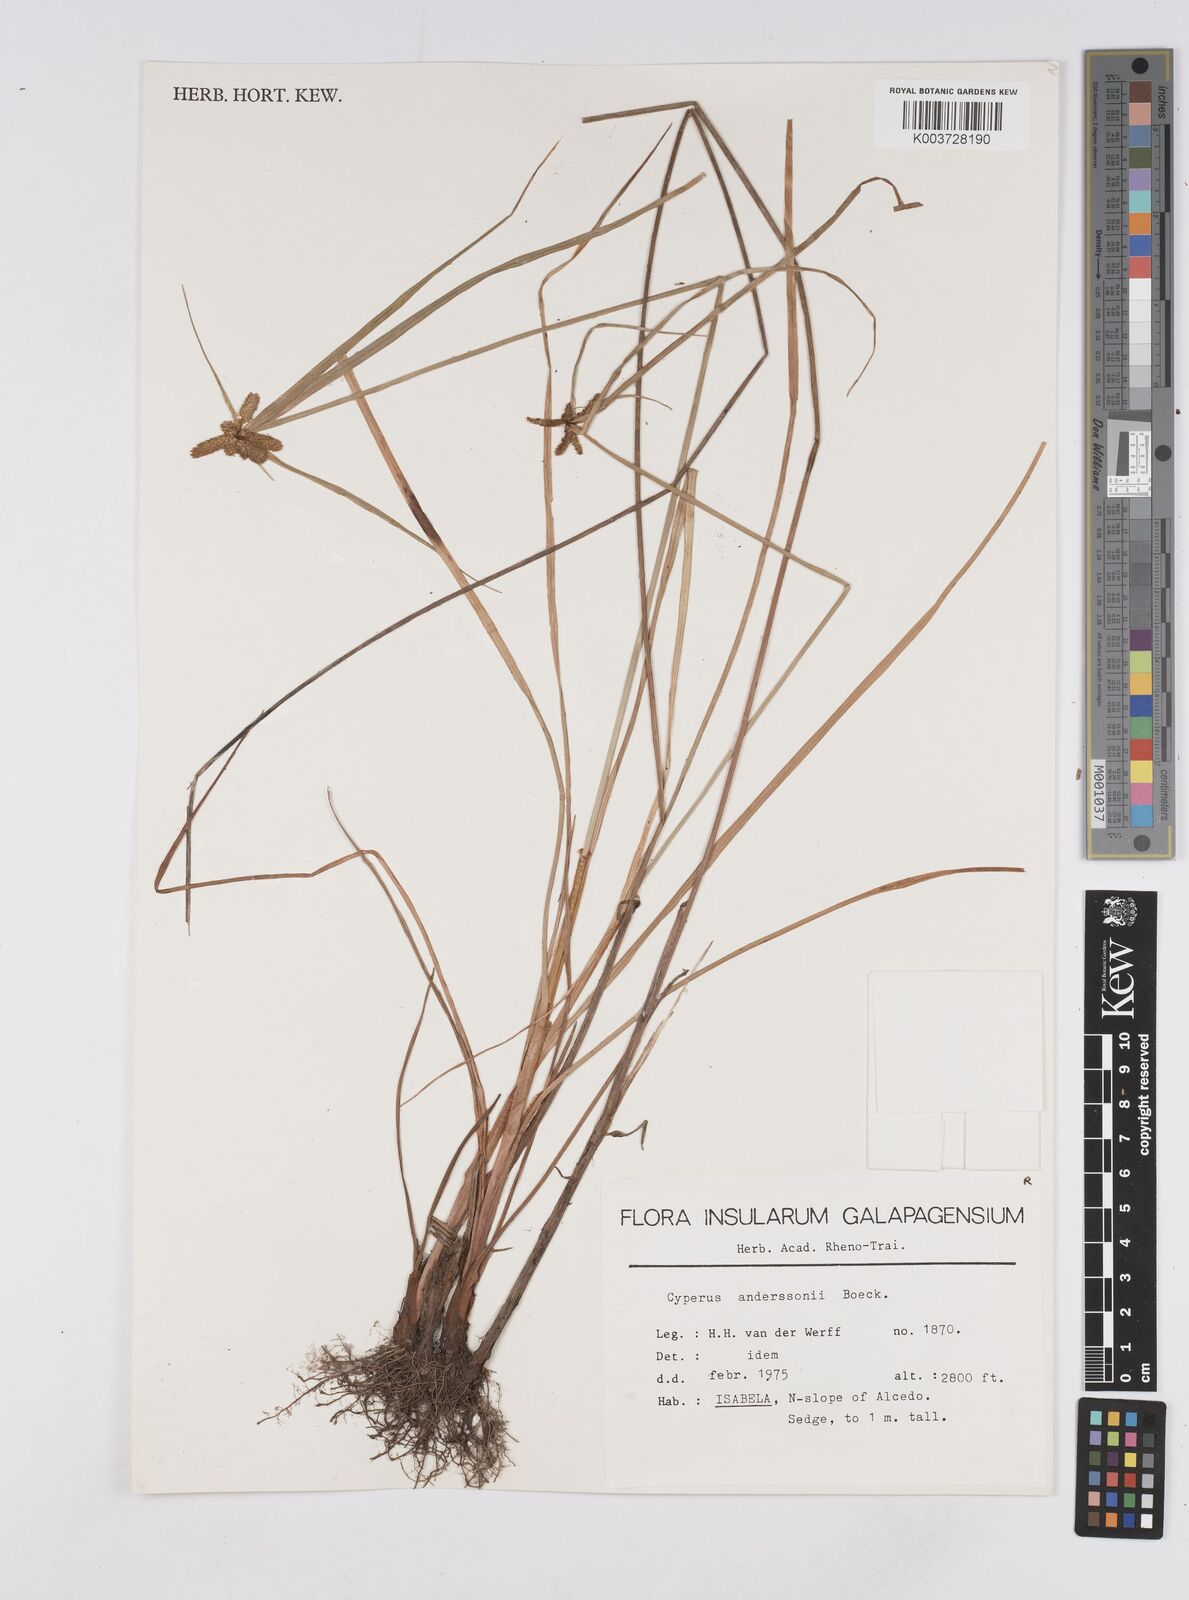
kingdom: Plantae
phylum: Tracheophyta
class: Liliopsida
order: Poales
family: Cyperaceae
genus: Cyperus
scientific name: Cyperus anderssonii
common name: Andersson's sedge
